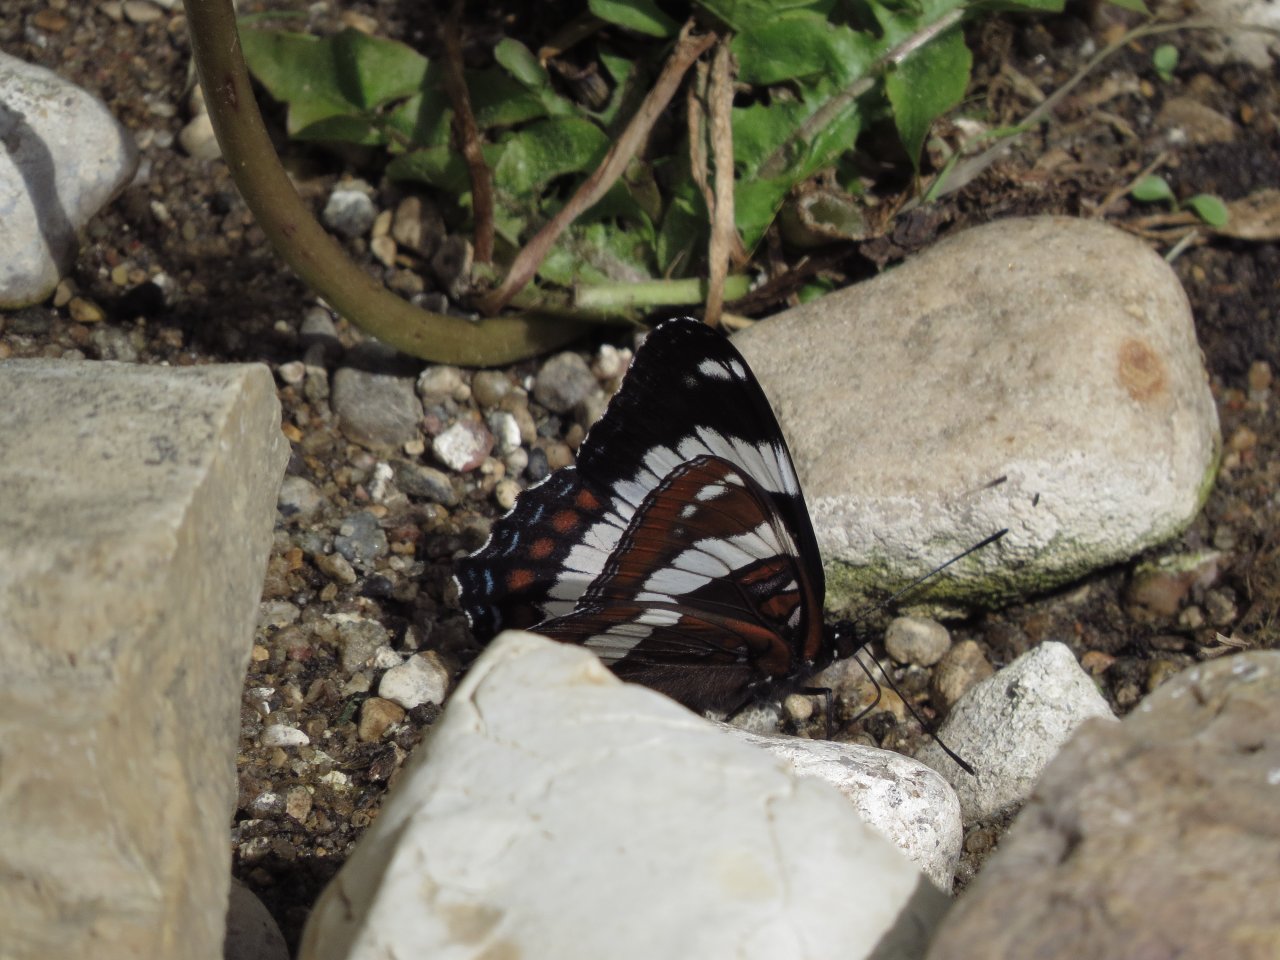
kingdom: Animalia
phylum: Arthropoda
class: Insecta
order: Lepidoptera
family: Nymphalidae
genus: Limenitis
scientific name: Limenitis arthemis
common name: Red-spotted Admiral
